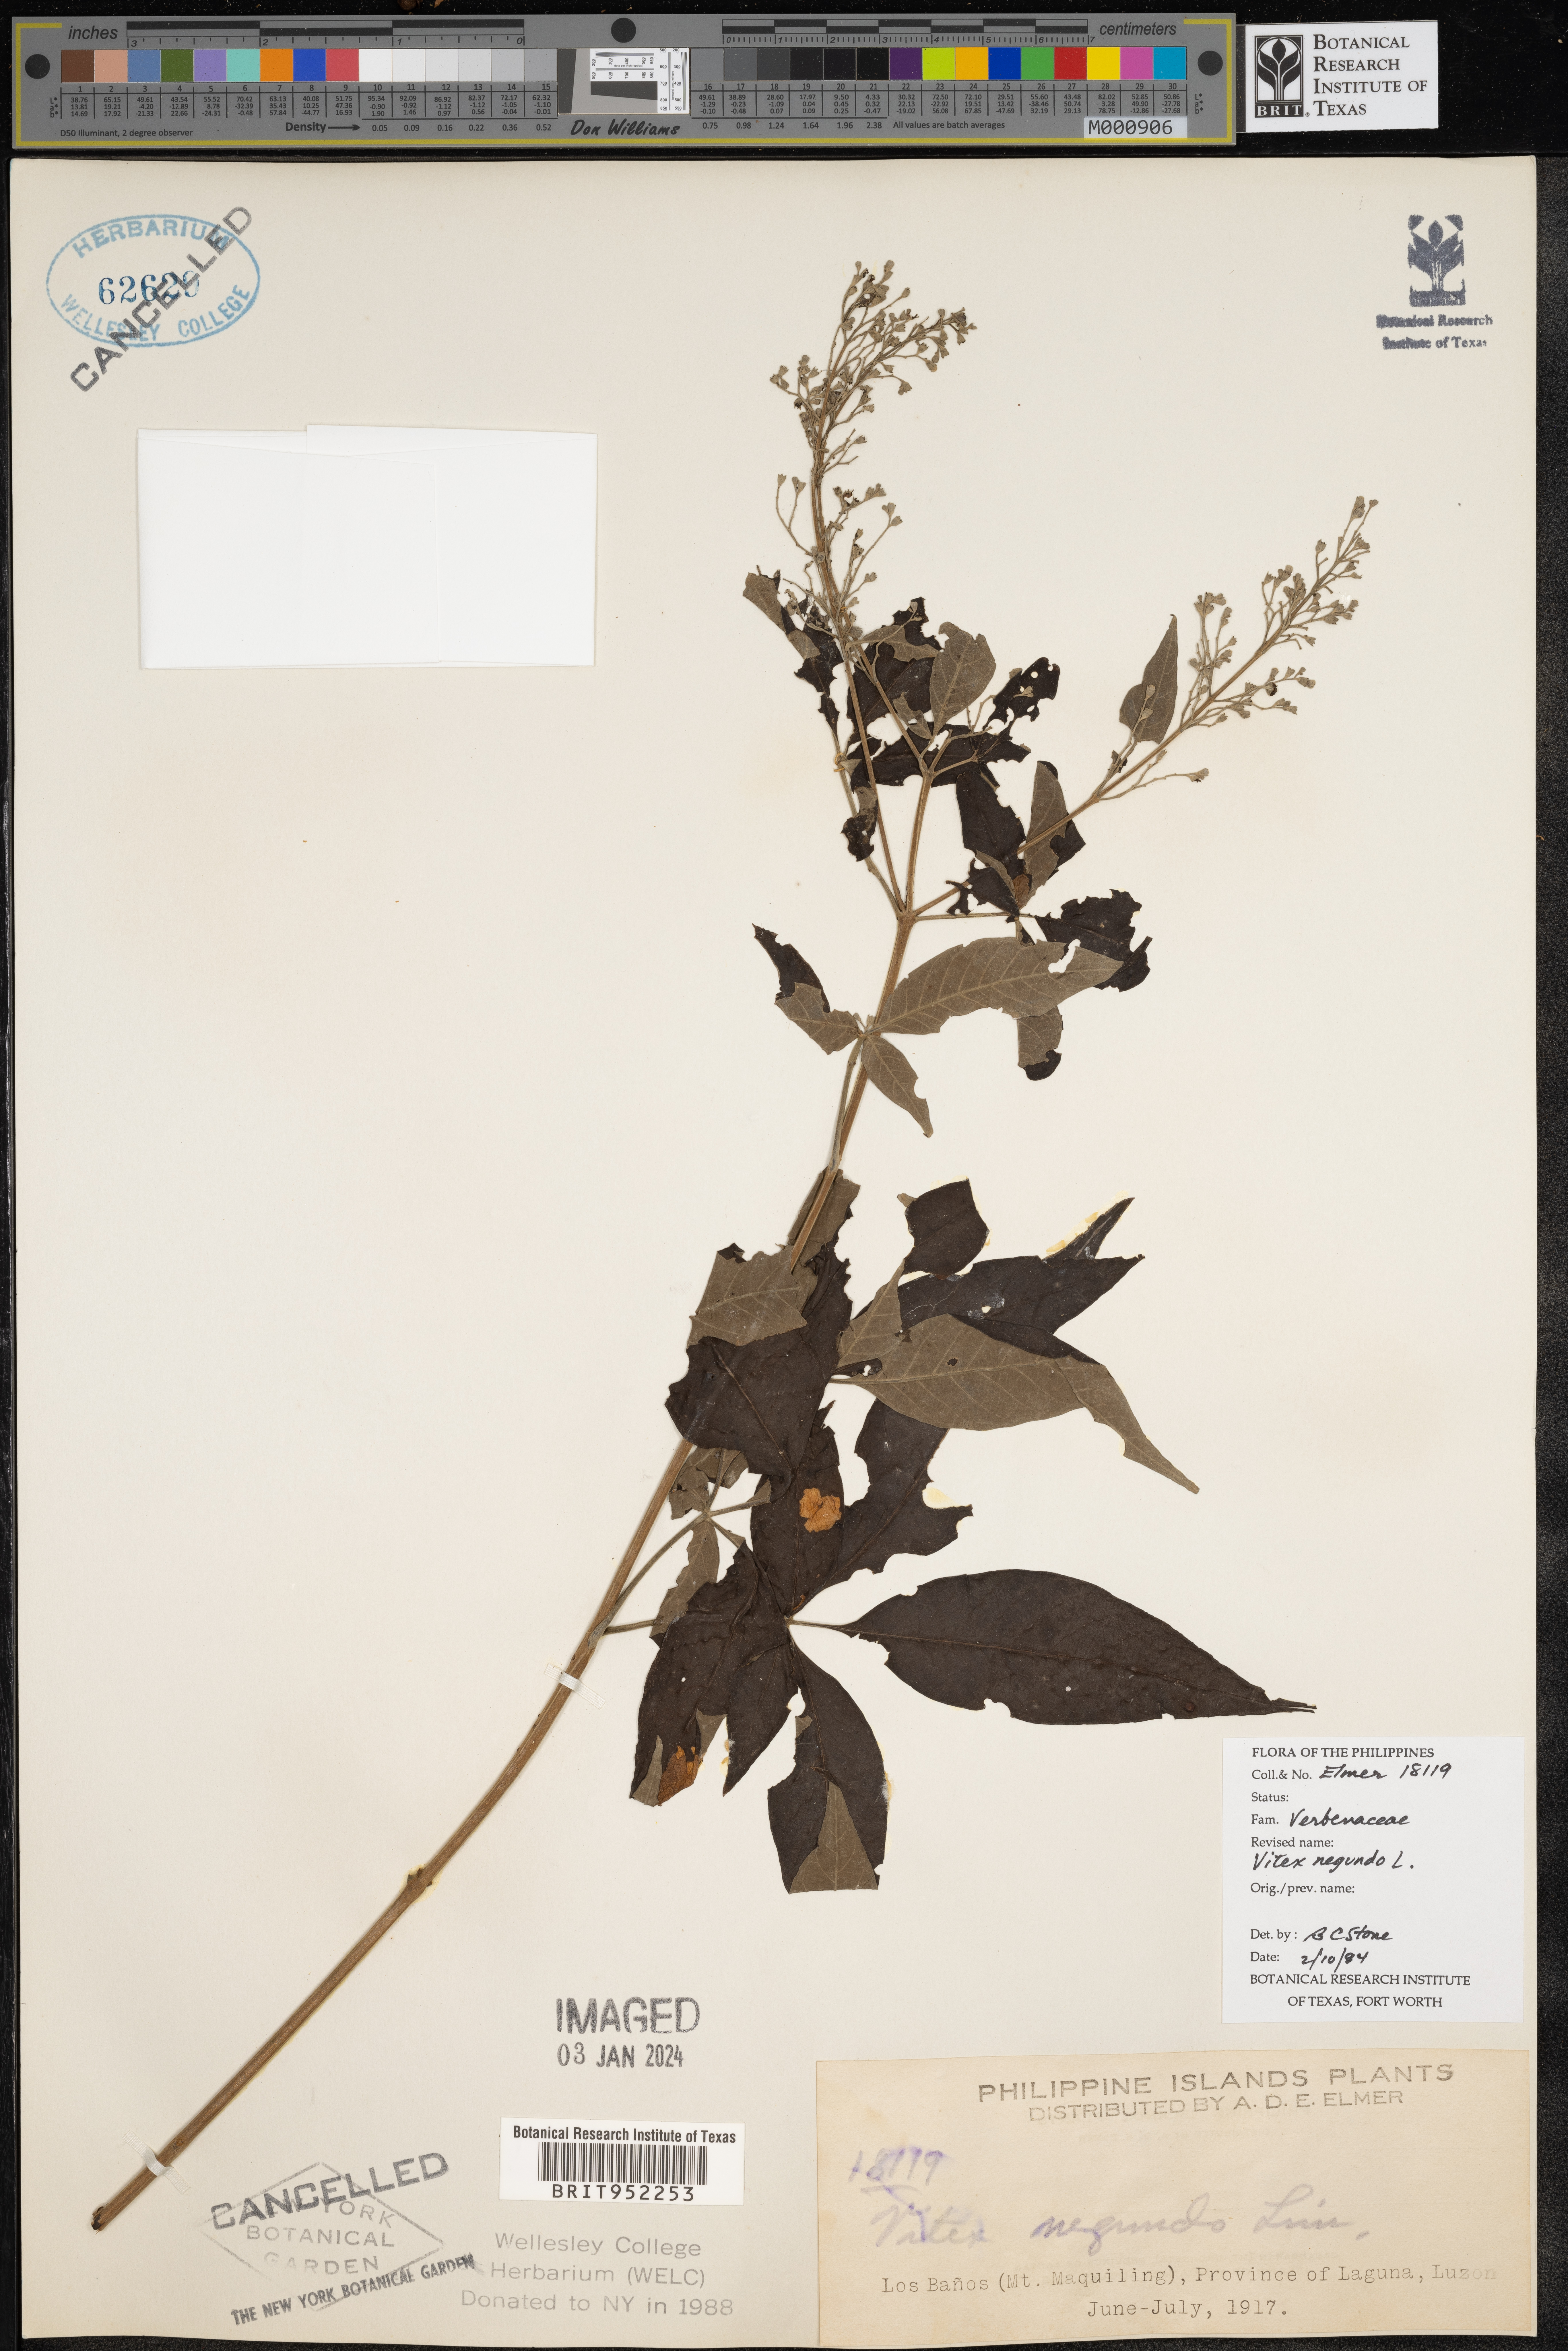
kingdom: Plantae
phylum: Tracheophyta
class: Magnoliopsida
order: Lamiales
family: Lamiaceae
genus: Vitex
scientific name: Vitex
